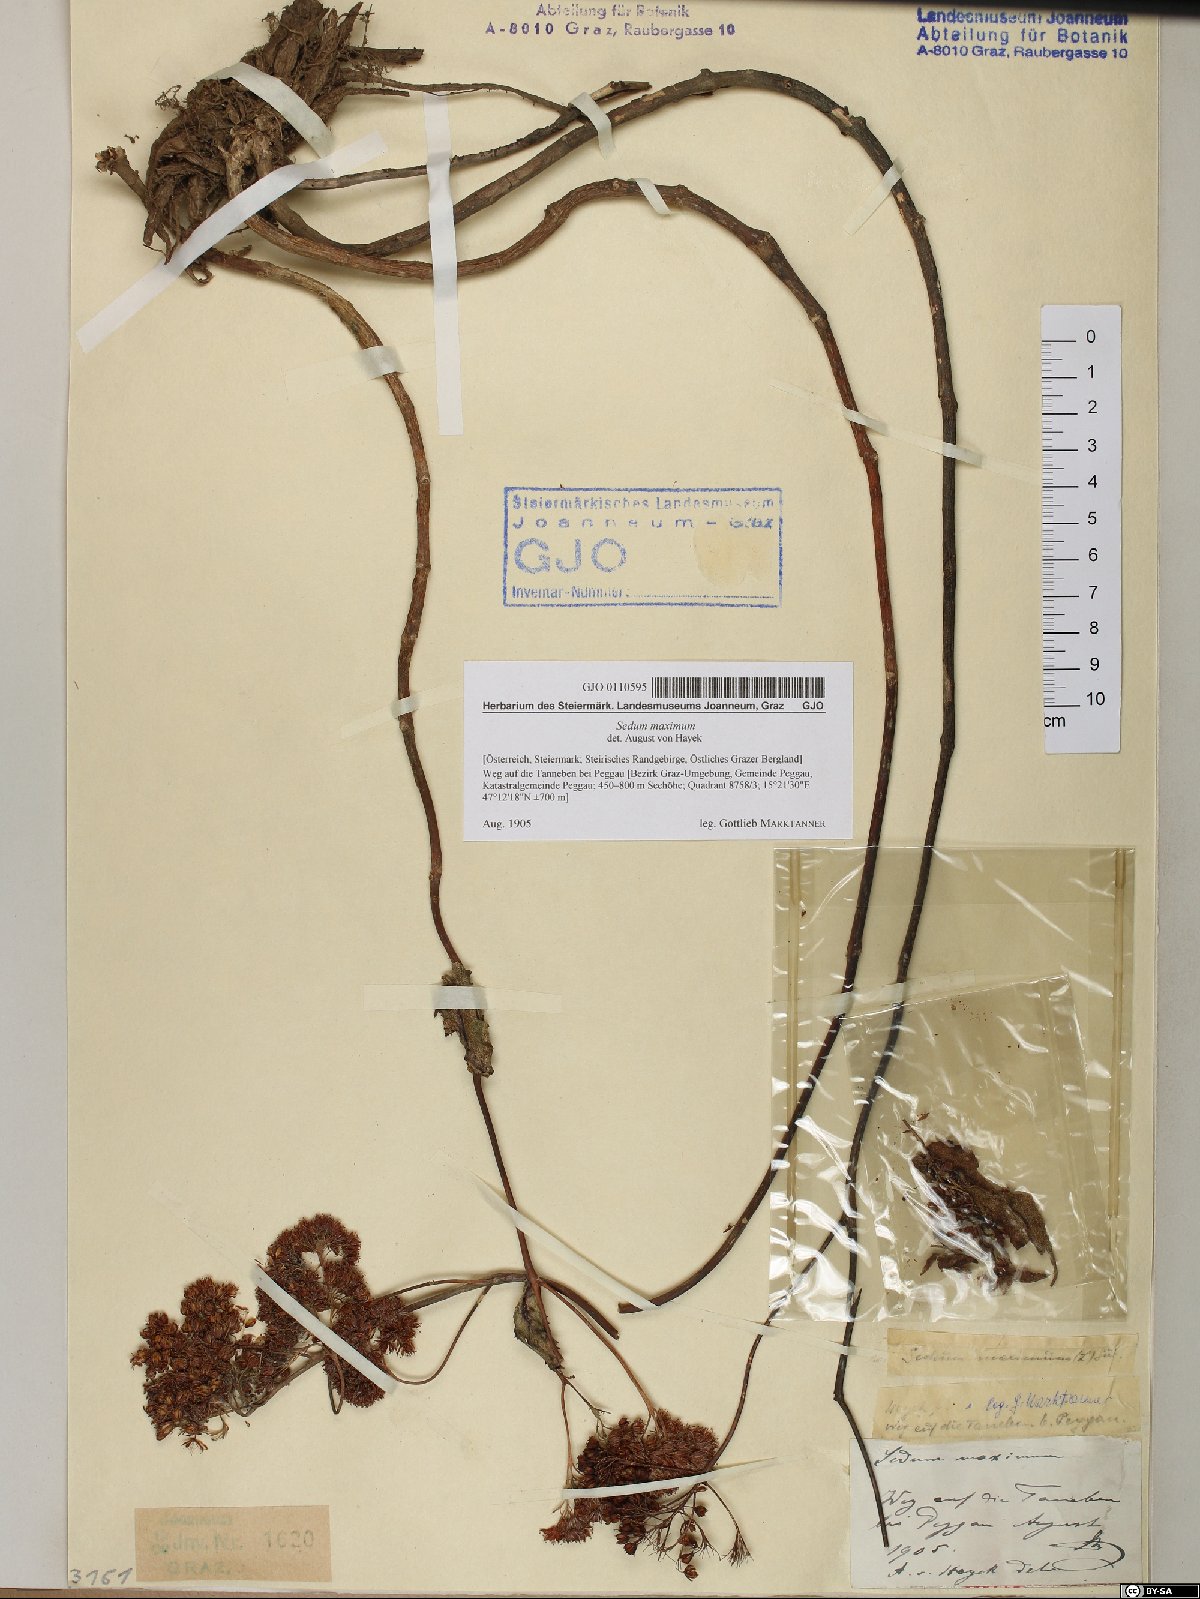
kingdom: Plantae
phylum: Tracheophyta
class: Magnoliopsida
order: Saxifragales
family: Crassulaceae
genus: Hylotelephium
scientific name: Hylotelephium maximum
